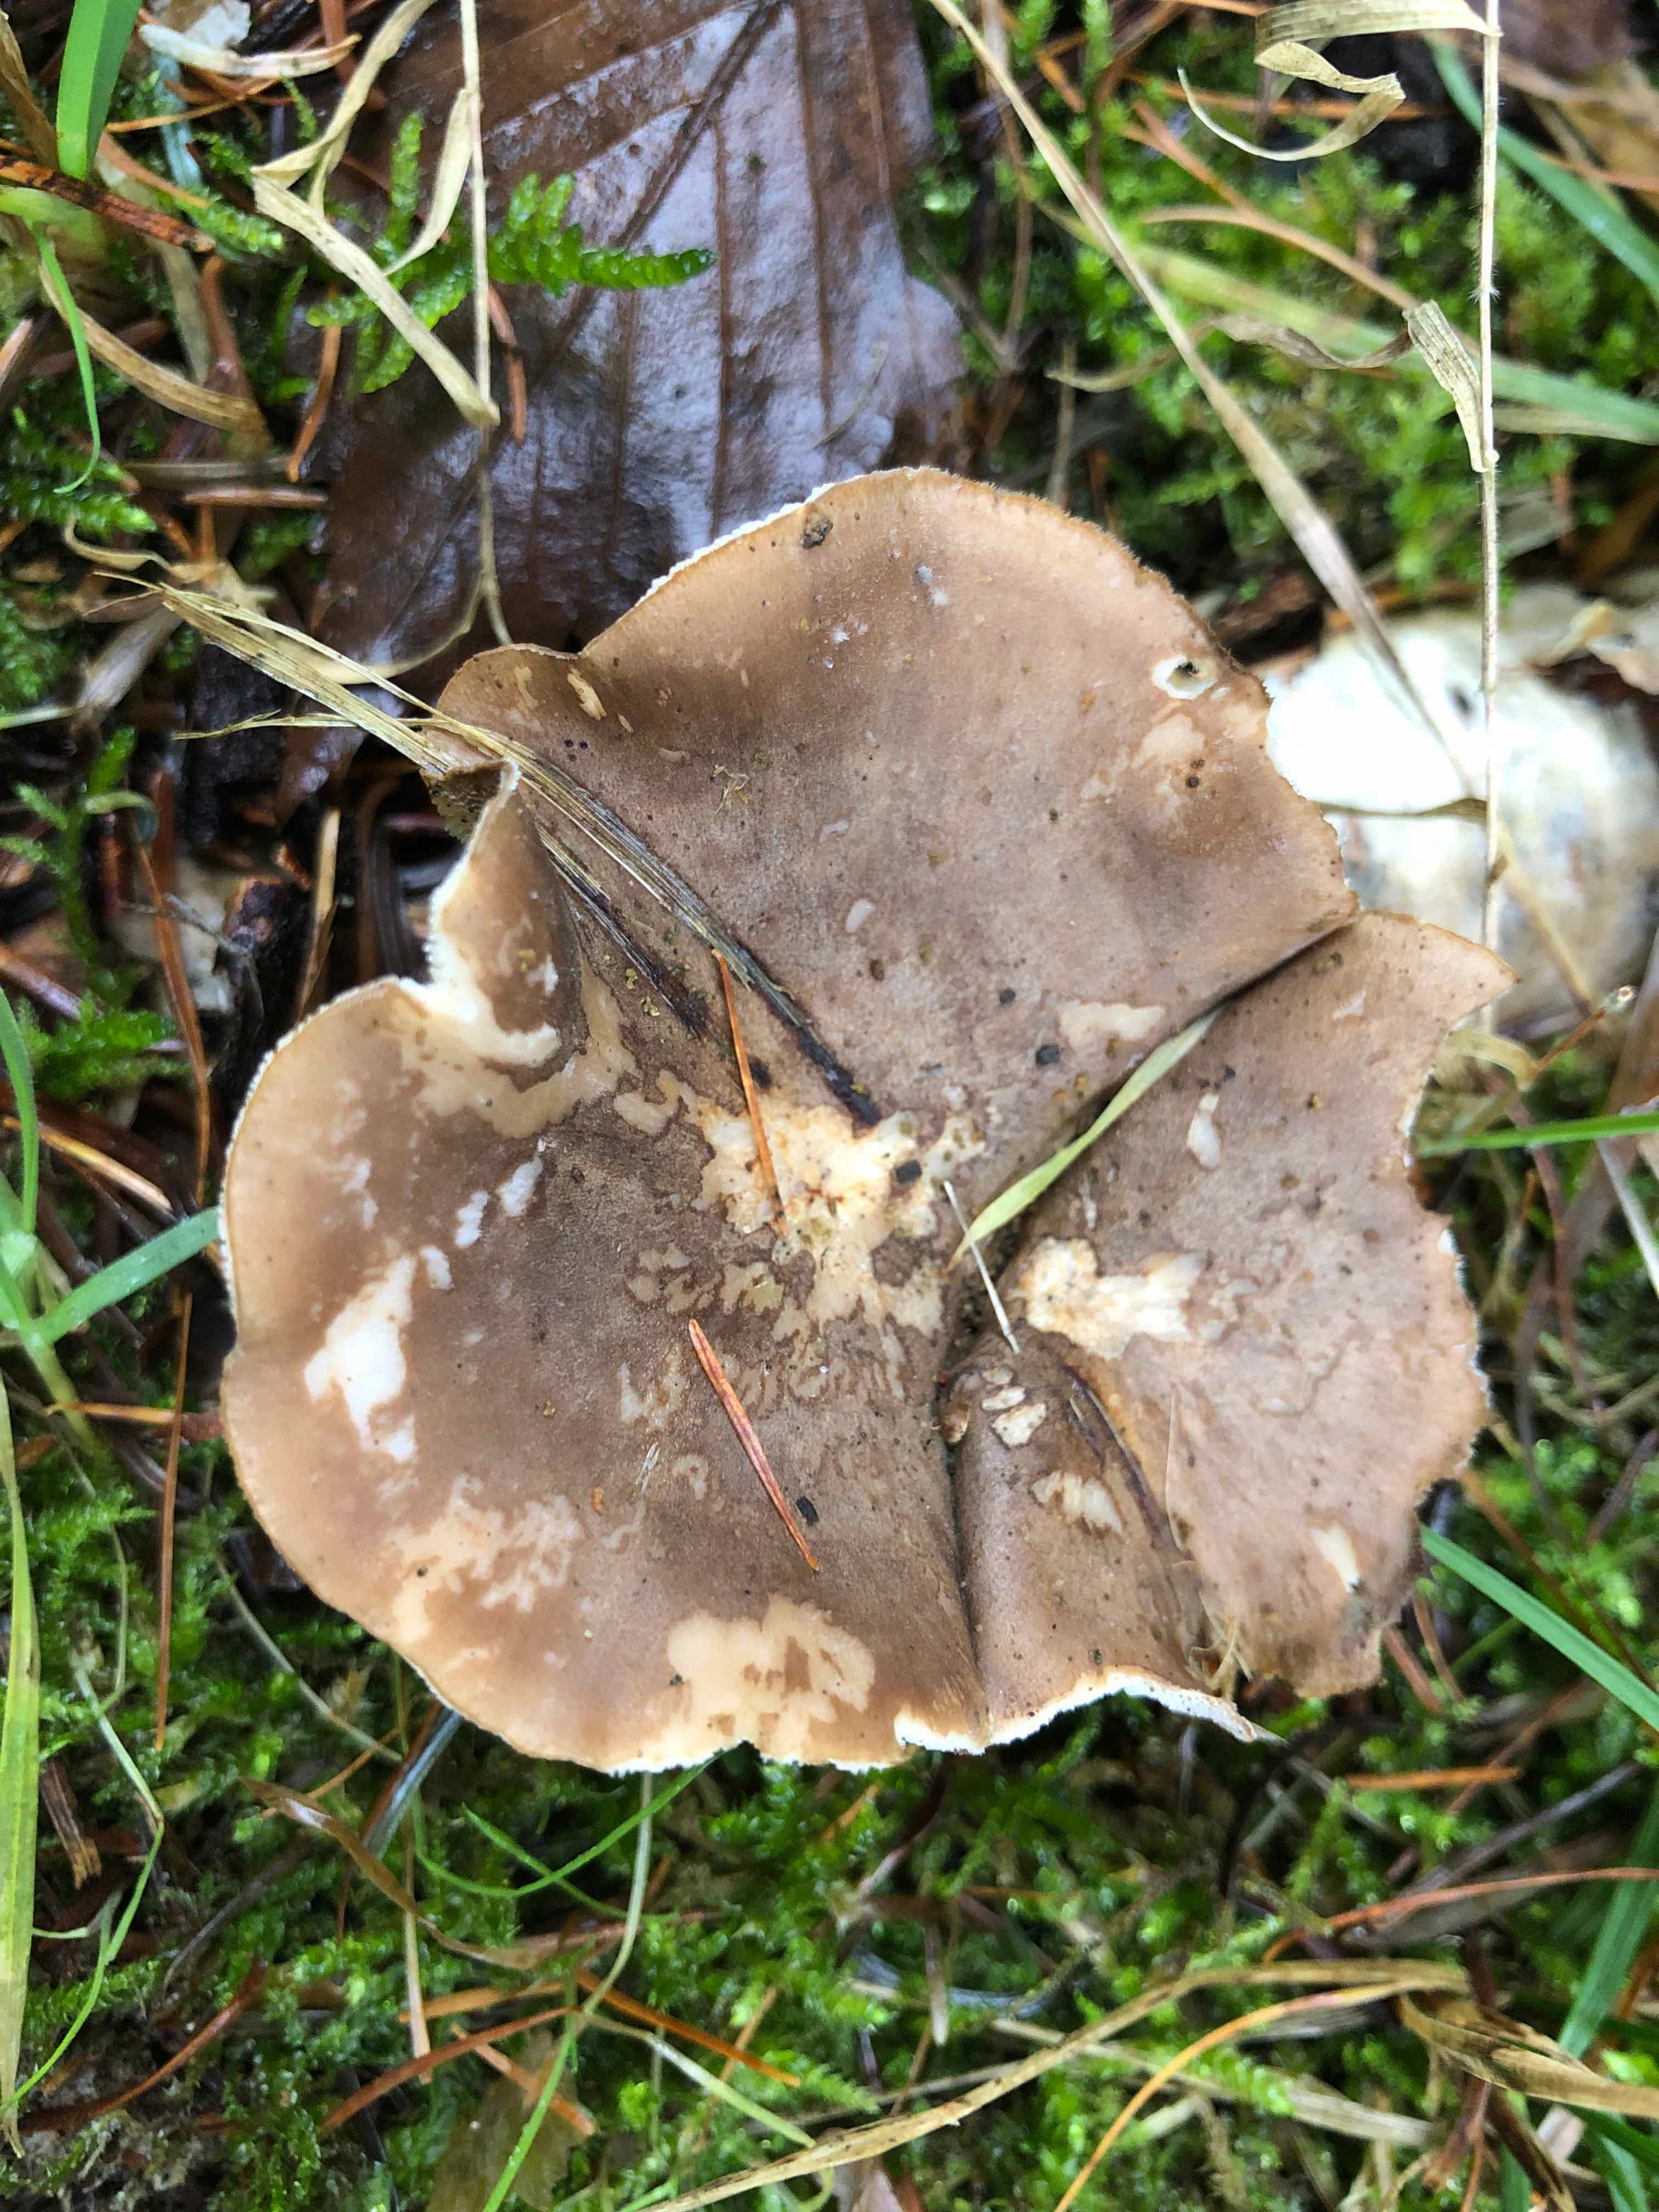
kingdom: Fungi
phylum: Basidiomycota
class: Agaricomycetes
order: Polyporales
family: Polyporaceae
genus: Lentinus
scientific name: Lentinus brumalis
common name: vinter-stilkporesvamp
